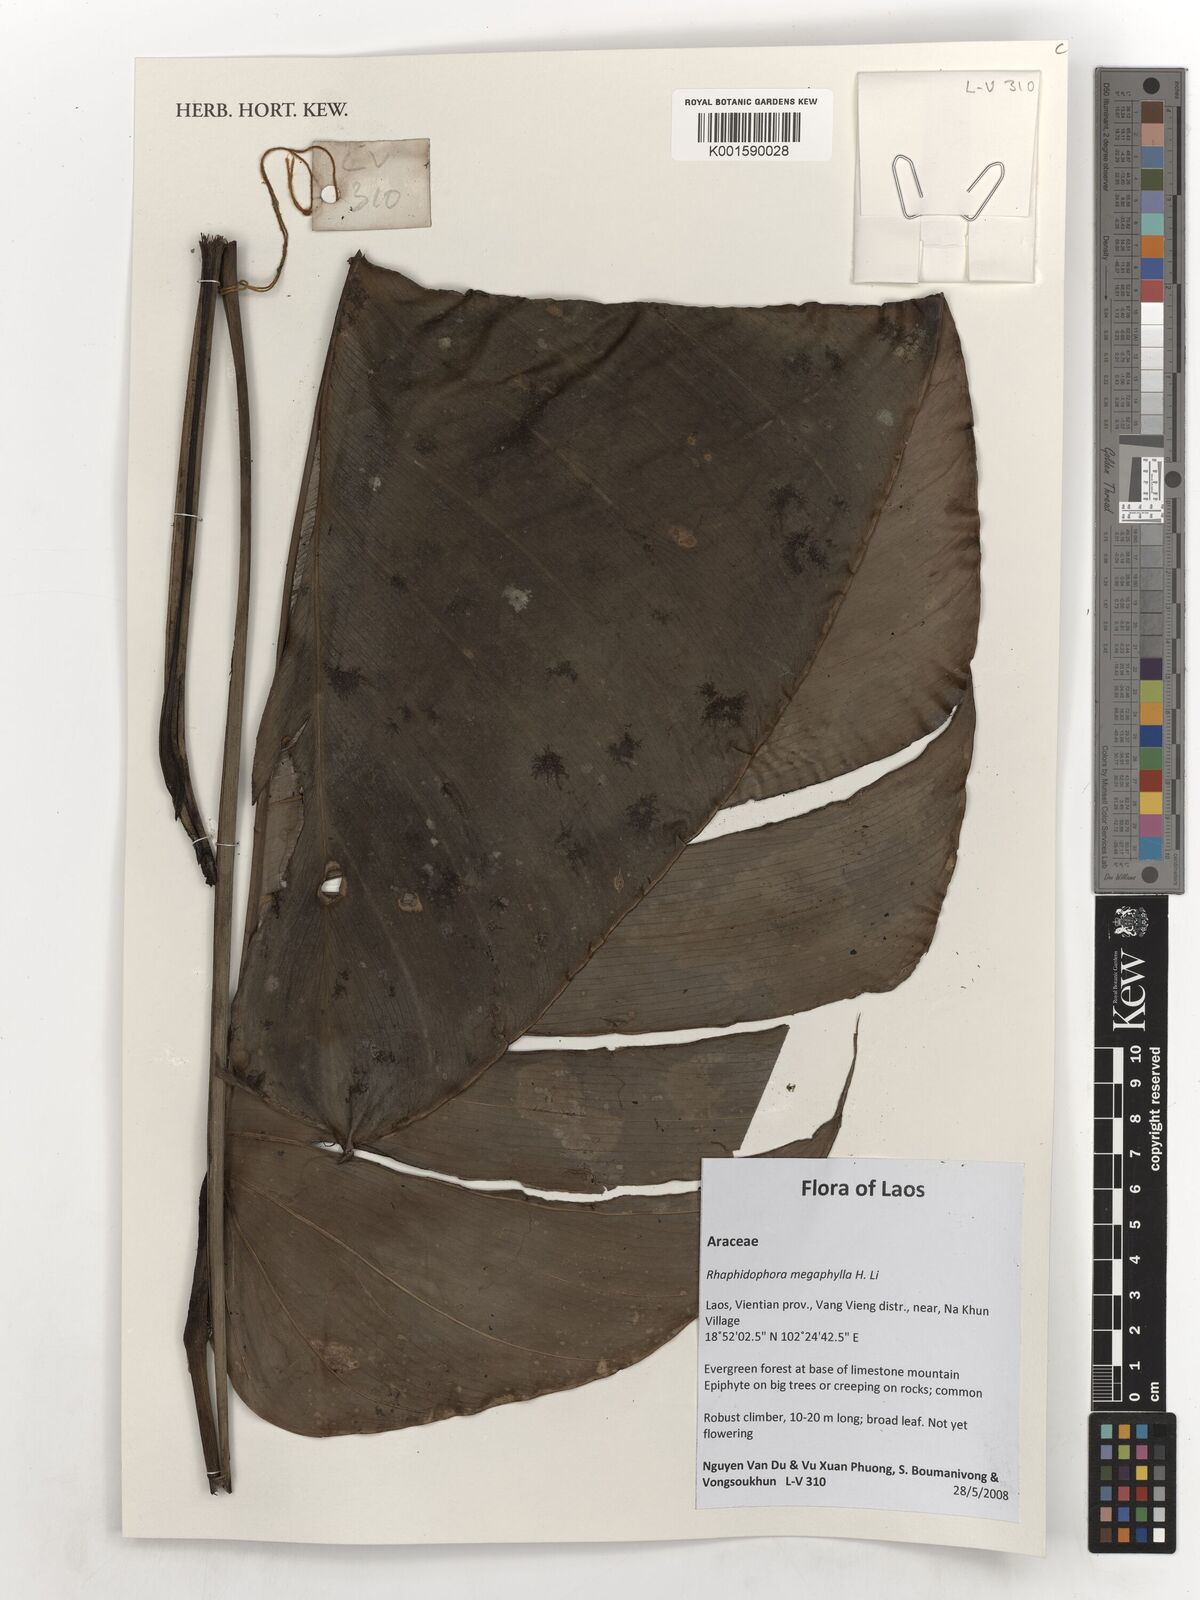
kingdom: Plantae
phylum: Tracheophyta
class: Liliopsida
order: Alismatales
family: Araceae
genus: Rhaphidophora
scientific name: Rhaphidophora megaphylla
